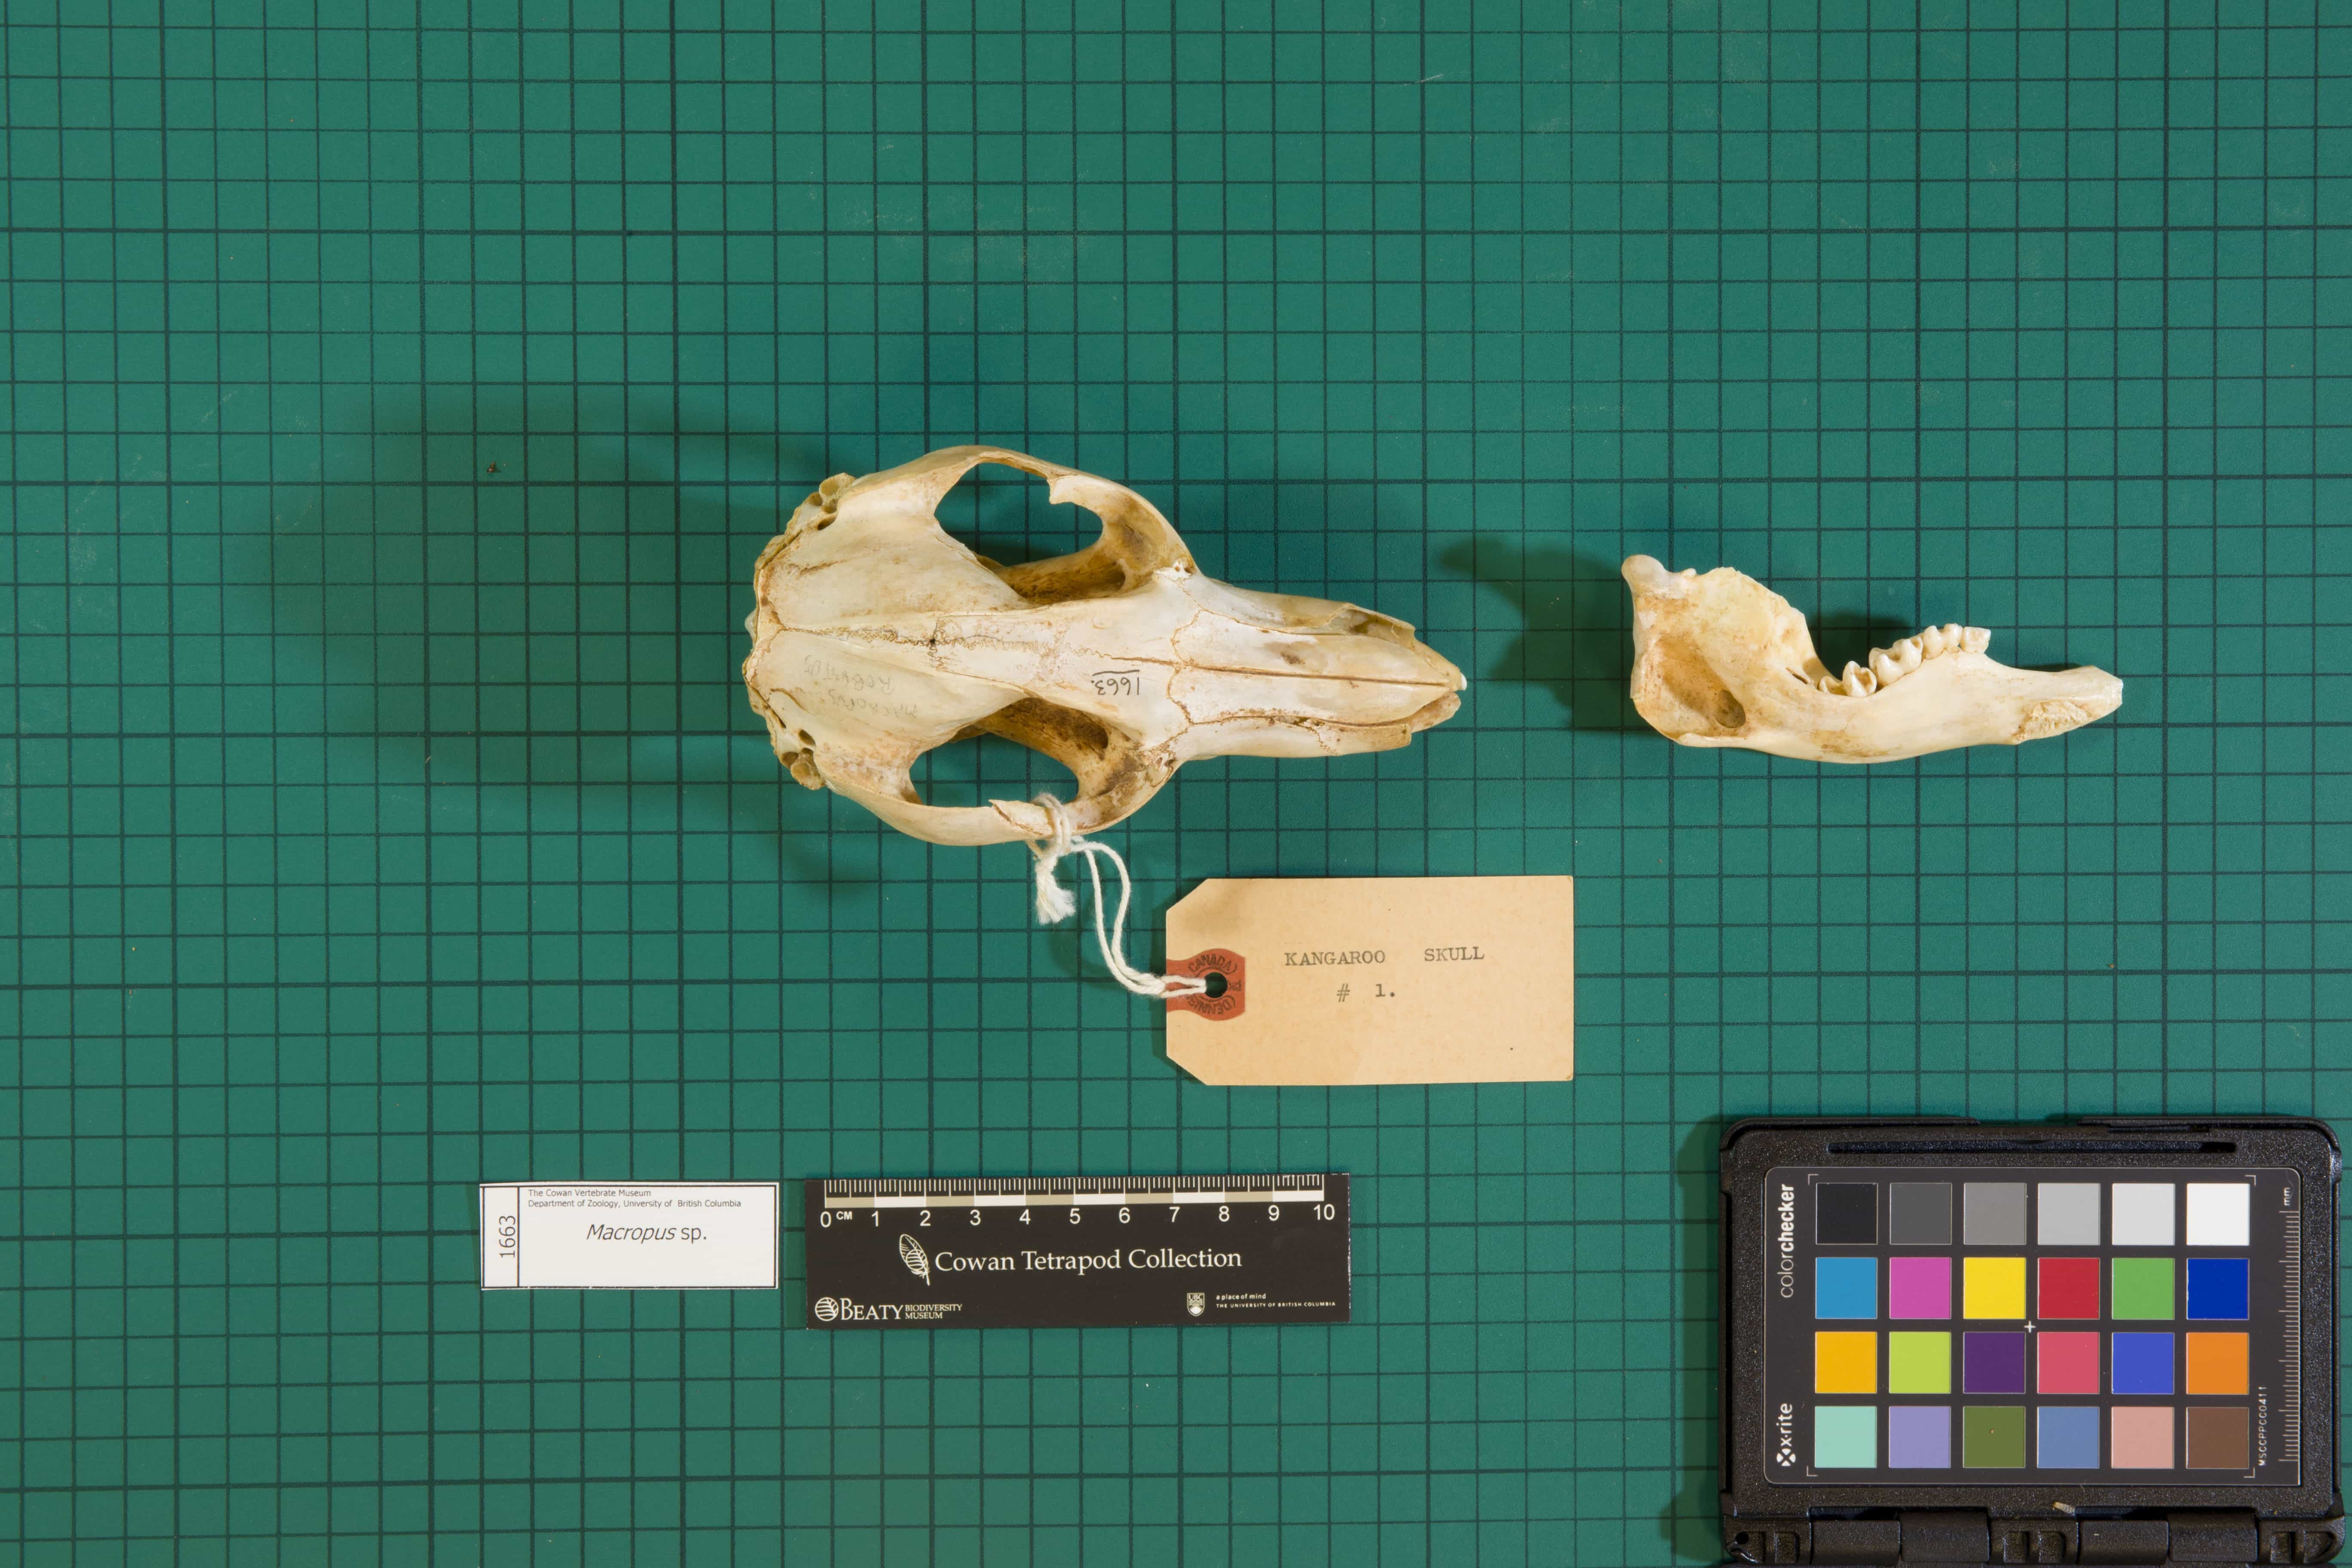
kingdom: Animalia
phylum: Chordata
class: Mammalia
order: Diprotodontia
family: Macropodidae
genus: Macropus
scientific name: Macropus
